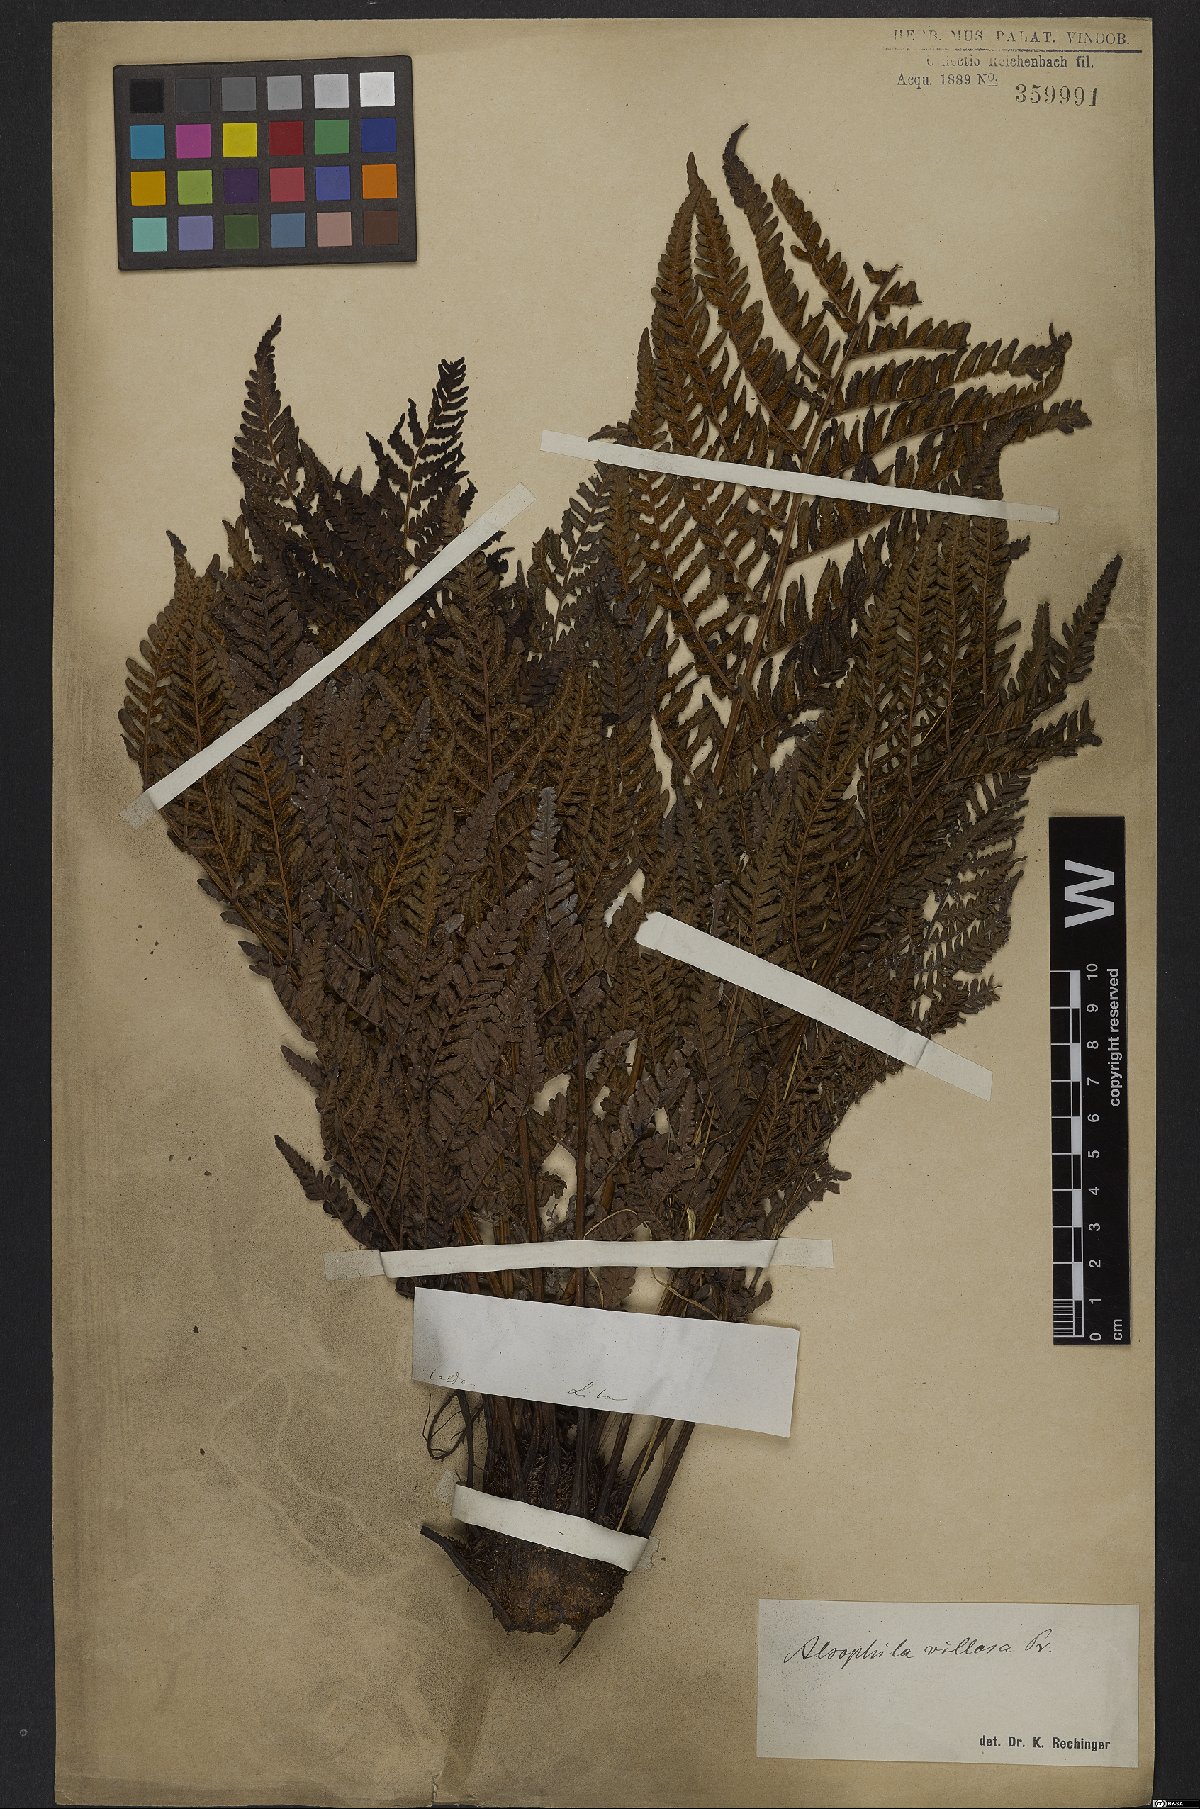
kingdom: Plantae
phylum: Tracheophyta
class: Polypodiopsida
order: Cyatheales
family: Cyatheaceae
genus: Cyathea
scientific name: Cyathea villosa
